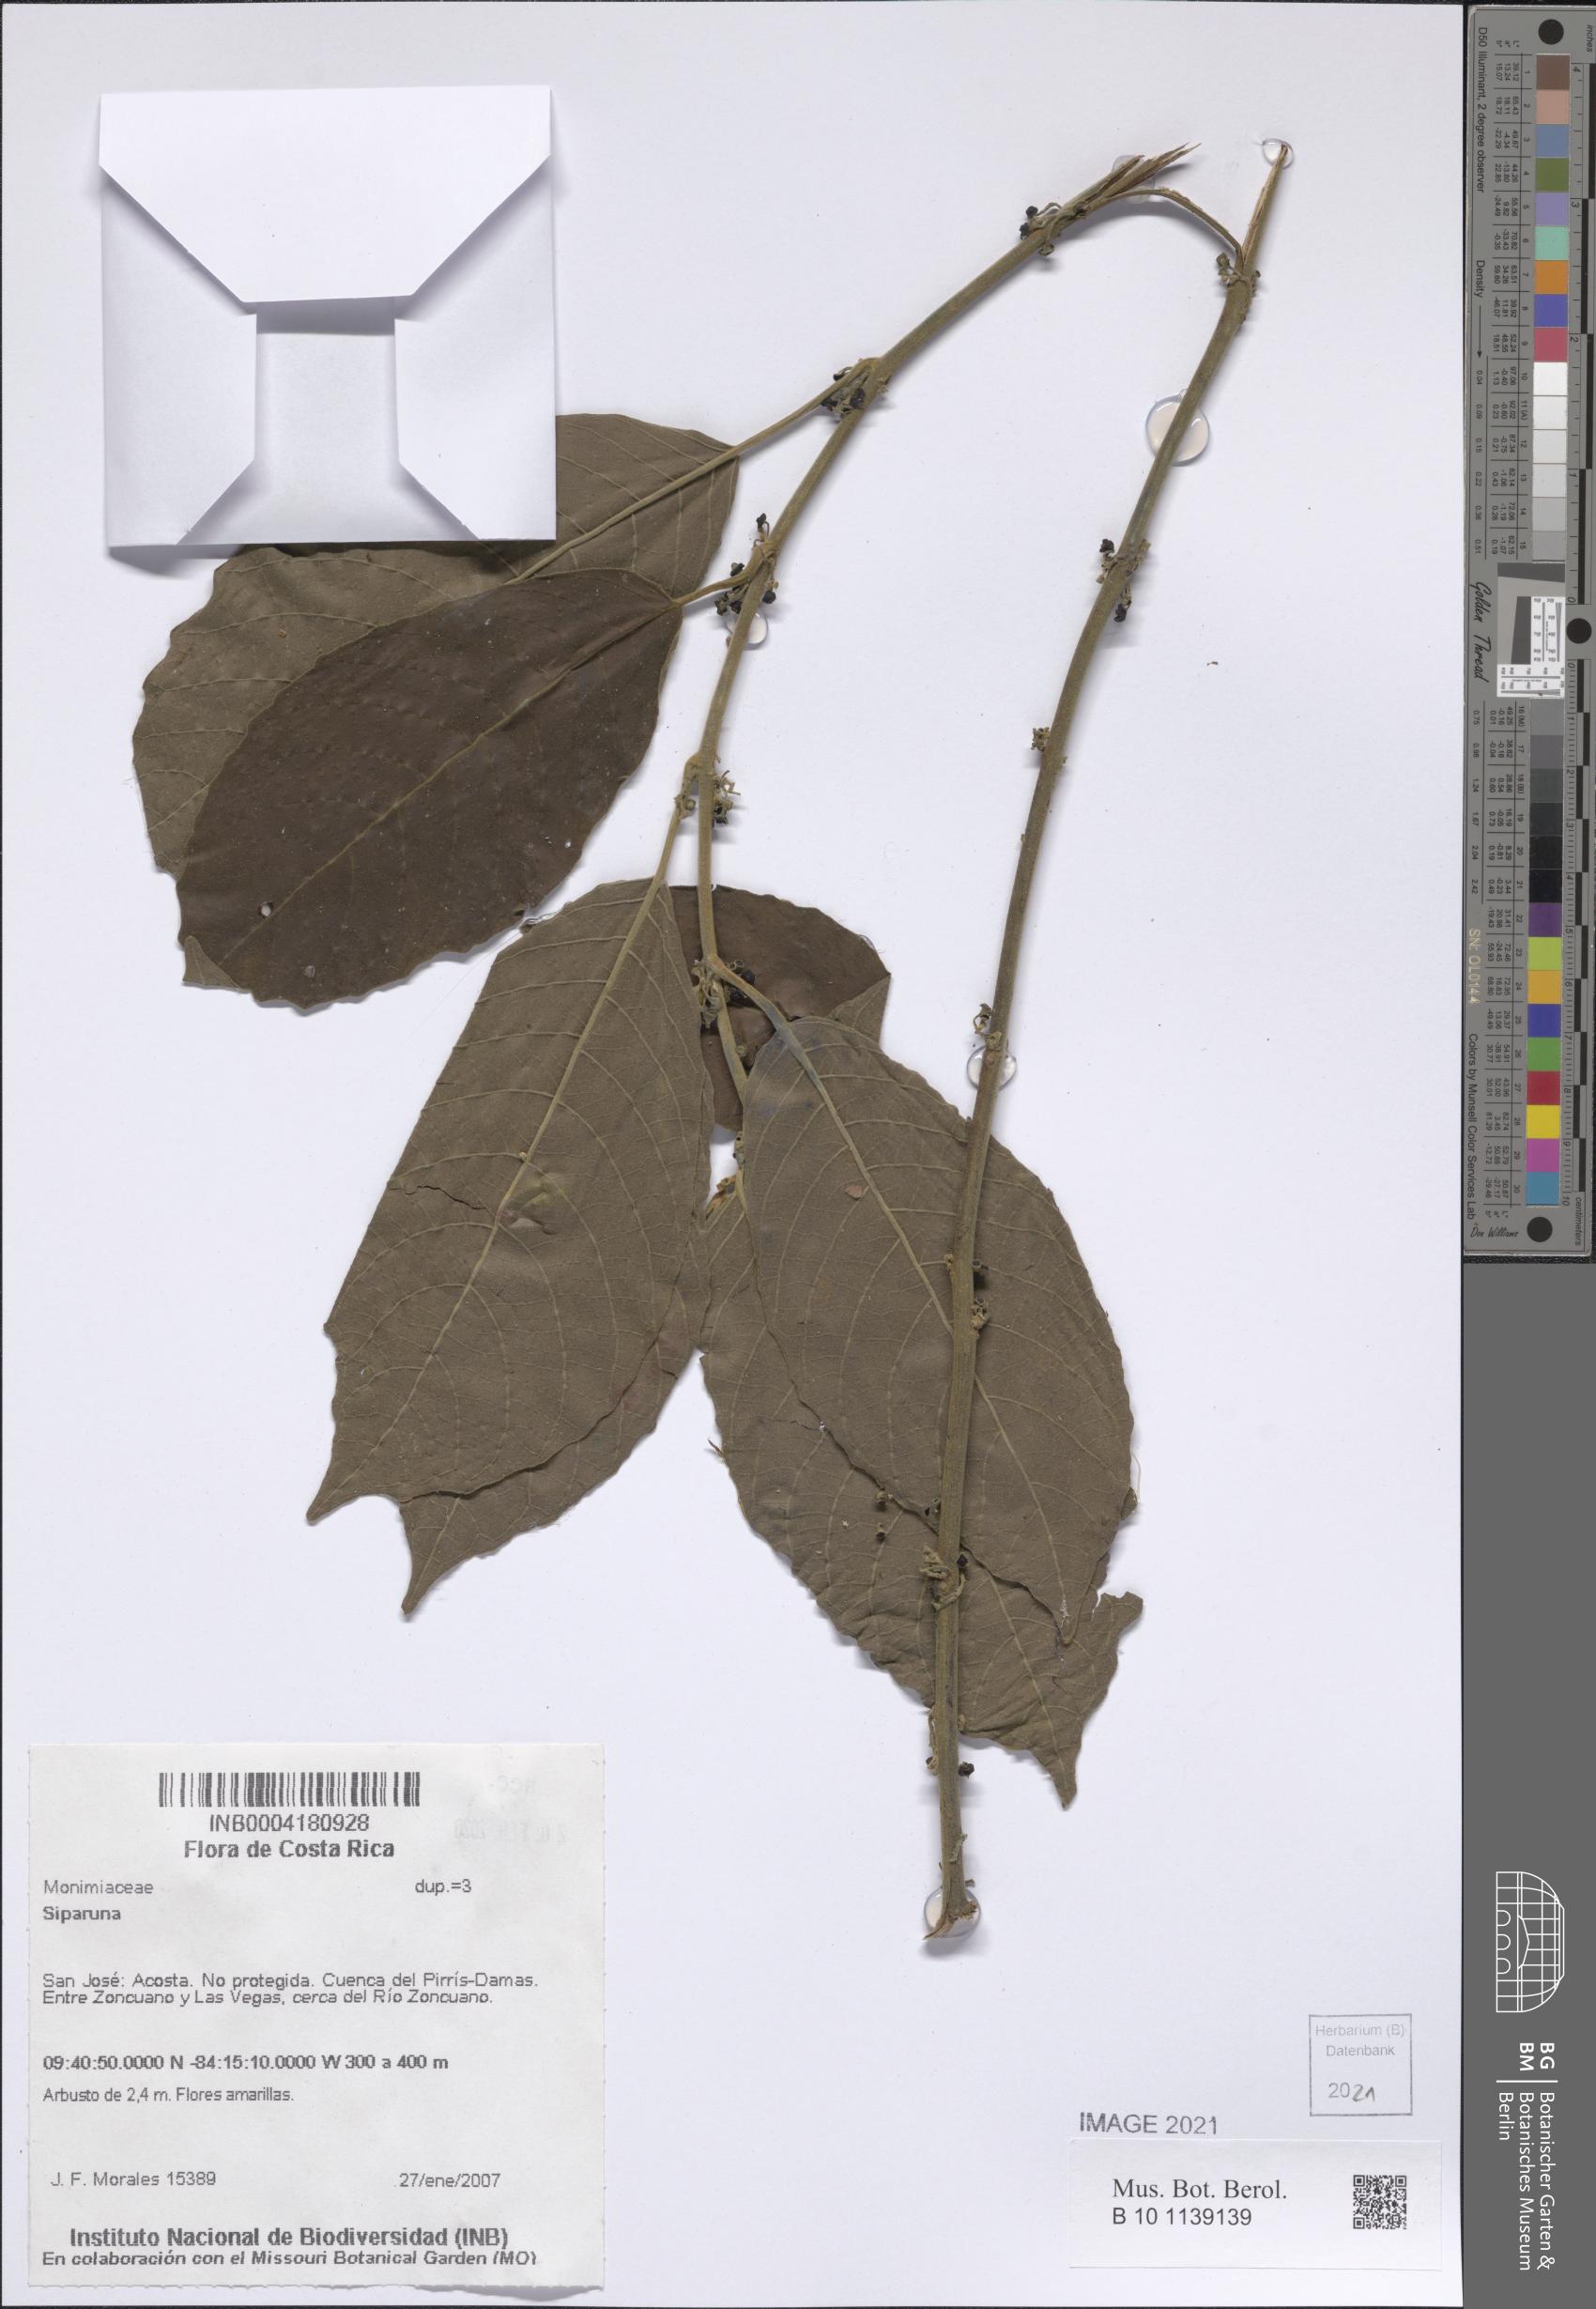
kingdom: Plantae
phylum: Tracheophyta
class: Magnoliopsida
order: Laurales
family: Siparunaceae
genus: Siparuna
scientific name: Siparuna
